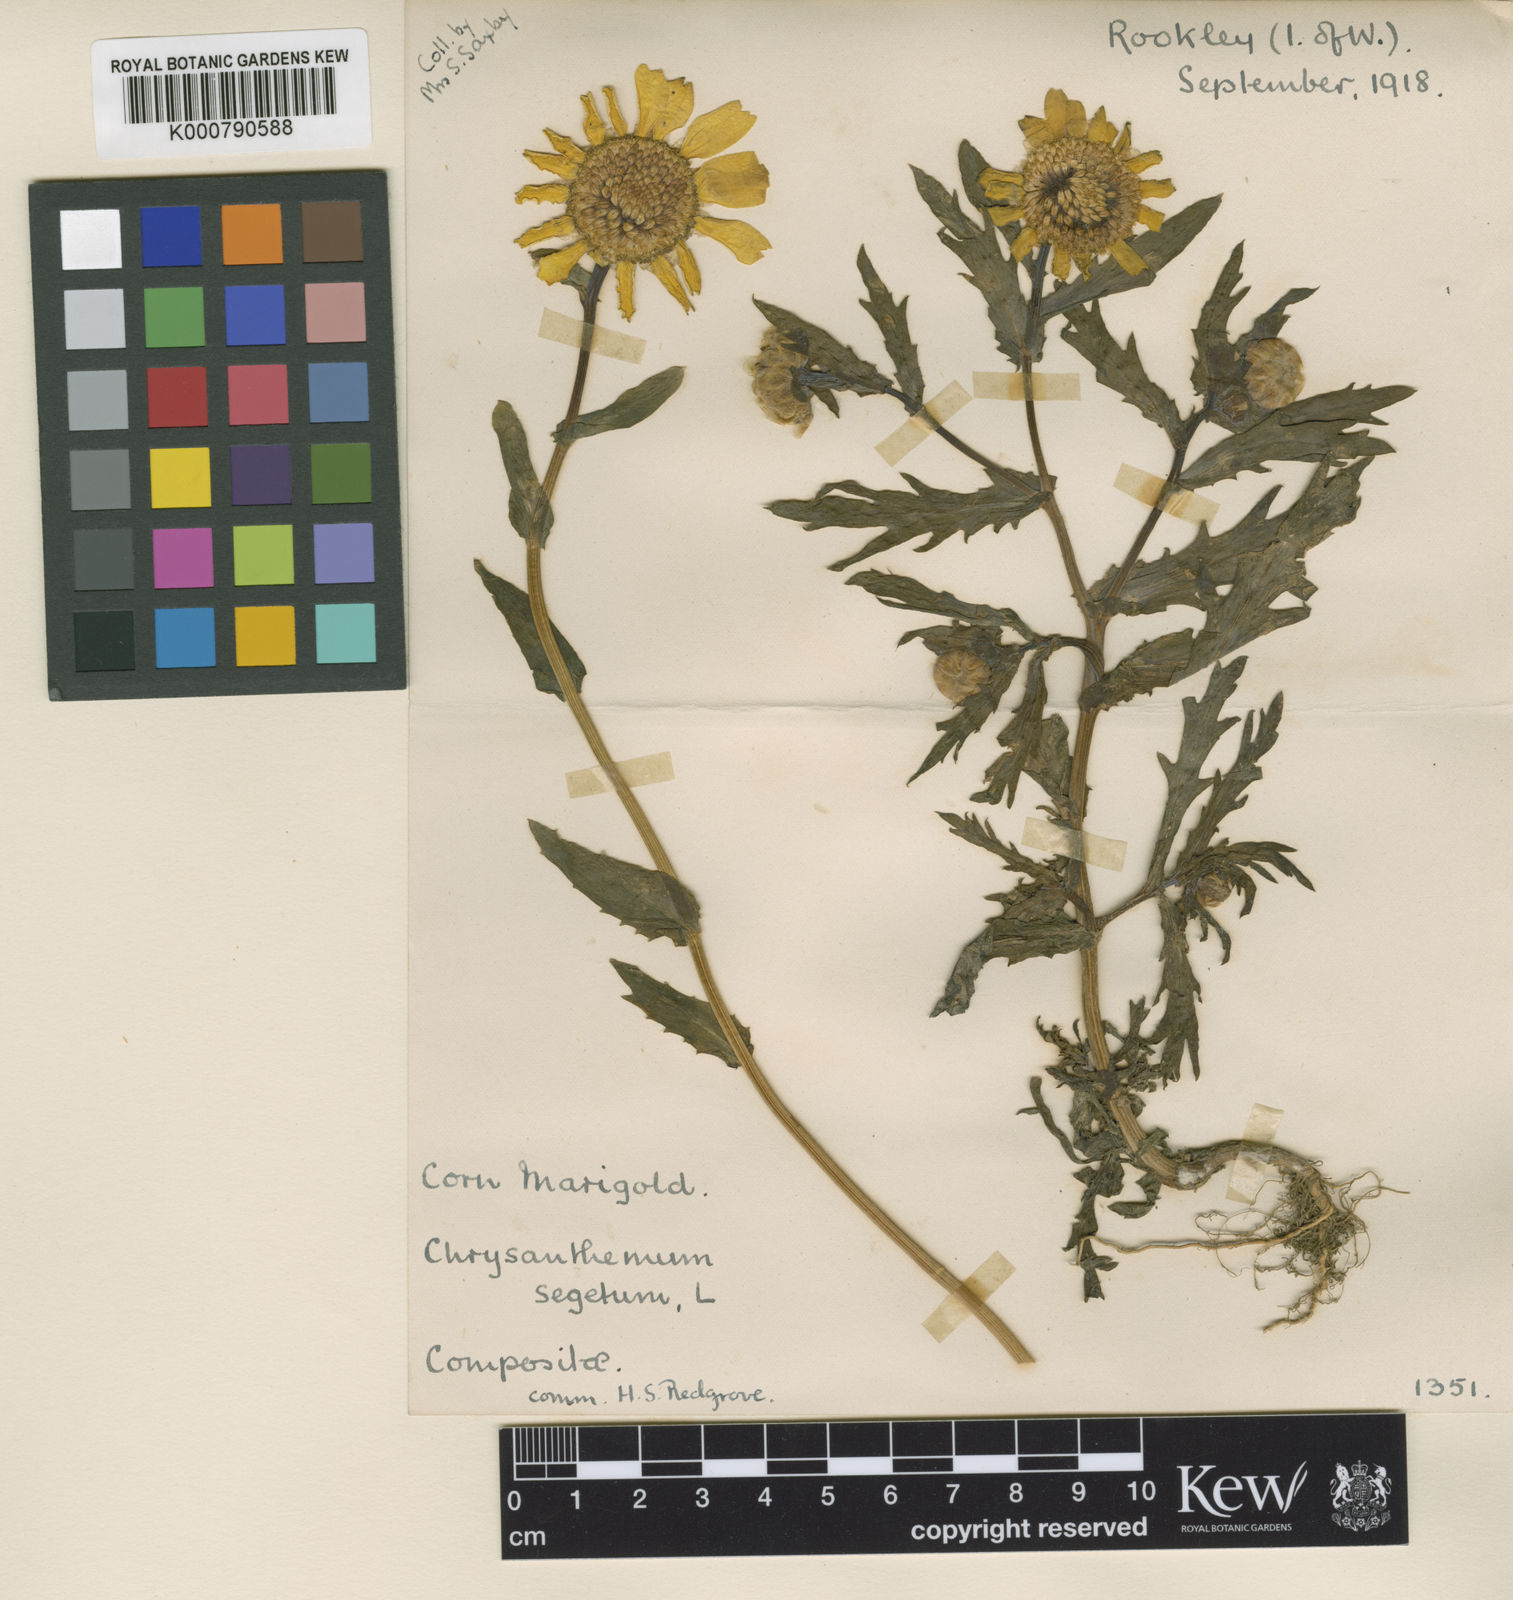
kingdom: Plantae
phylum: Tracheophyta
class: Magnoliopsida
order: Asterales
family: Asteraceae
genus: Glebionis
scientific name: Glebionis segetum
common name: Corndaisy
